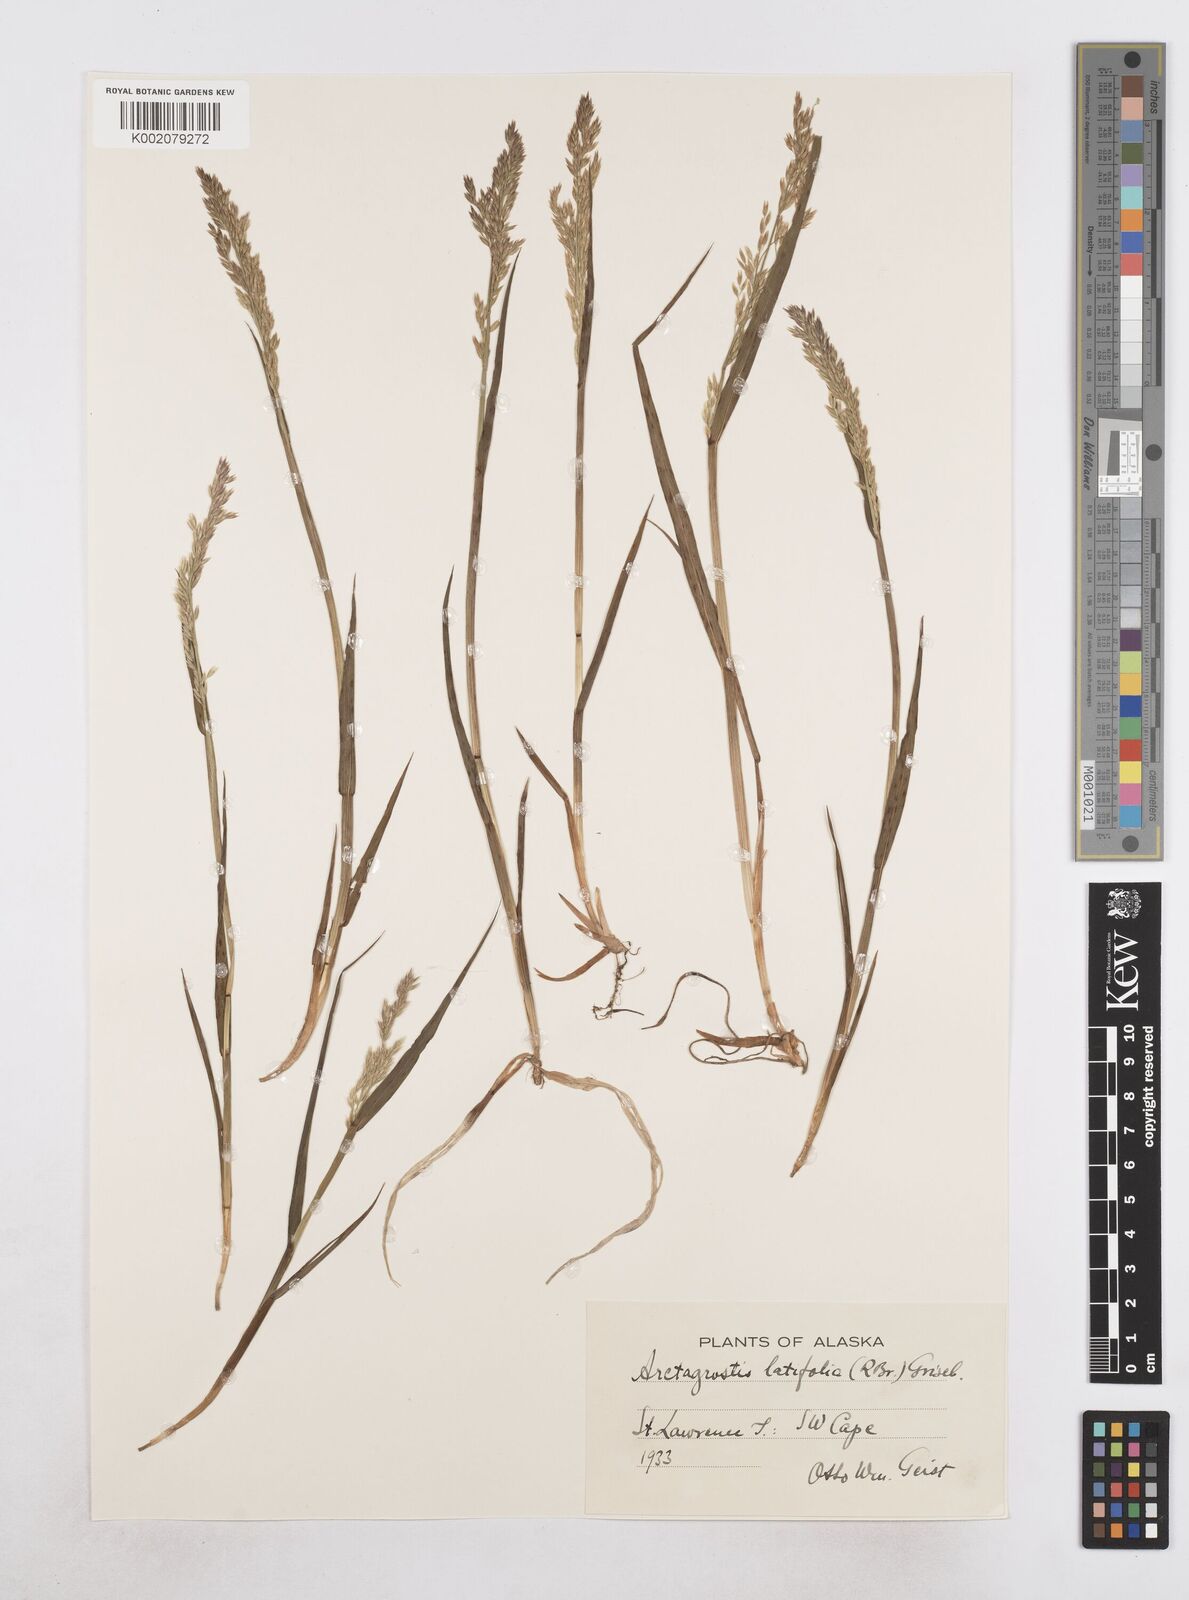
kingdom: Plantae
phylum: Tracheophyta
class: Liliopsida
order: Poales
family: Poaceae
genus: Arctagrostis
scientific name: Arctagrostis latifolia
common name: Arctic grass
